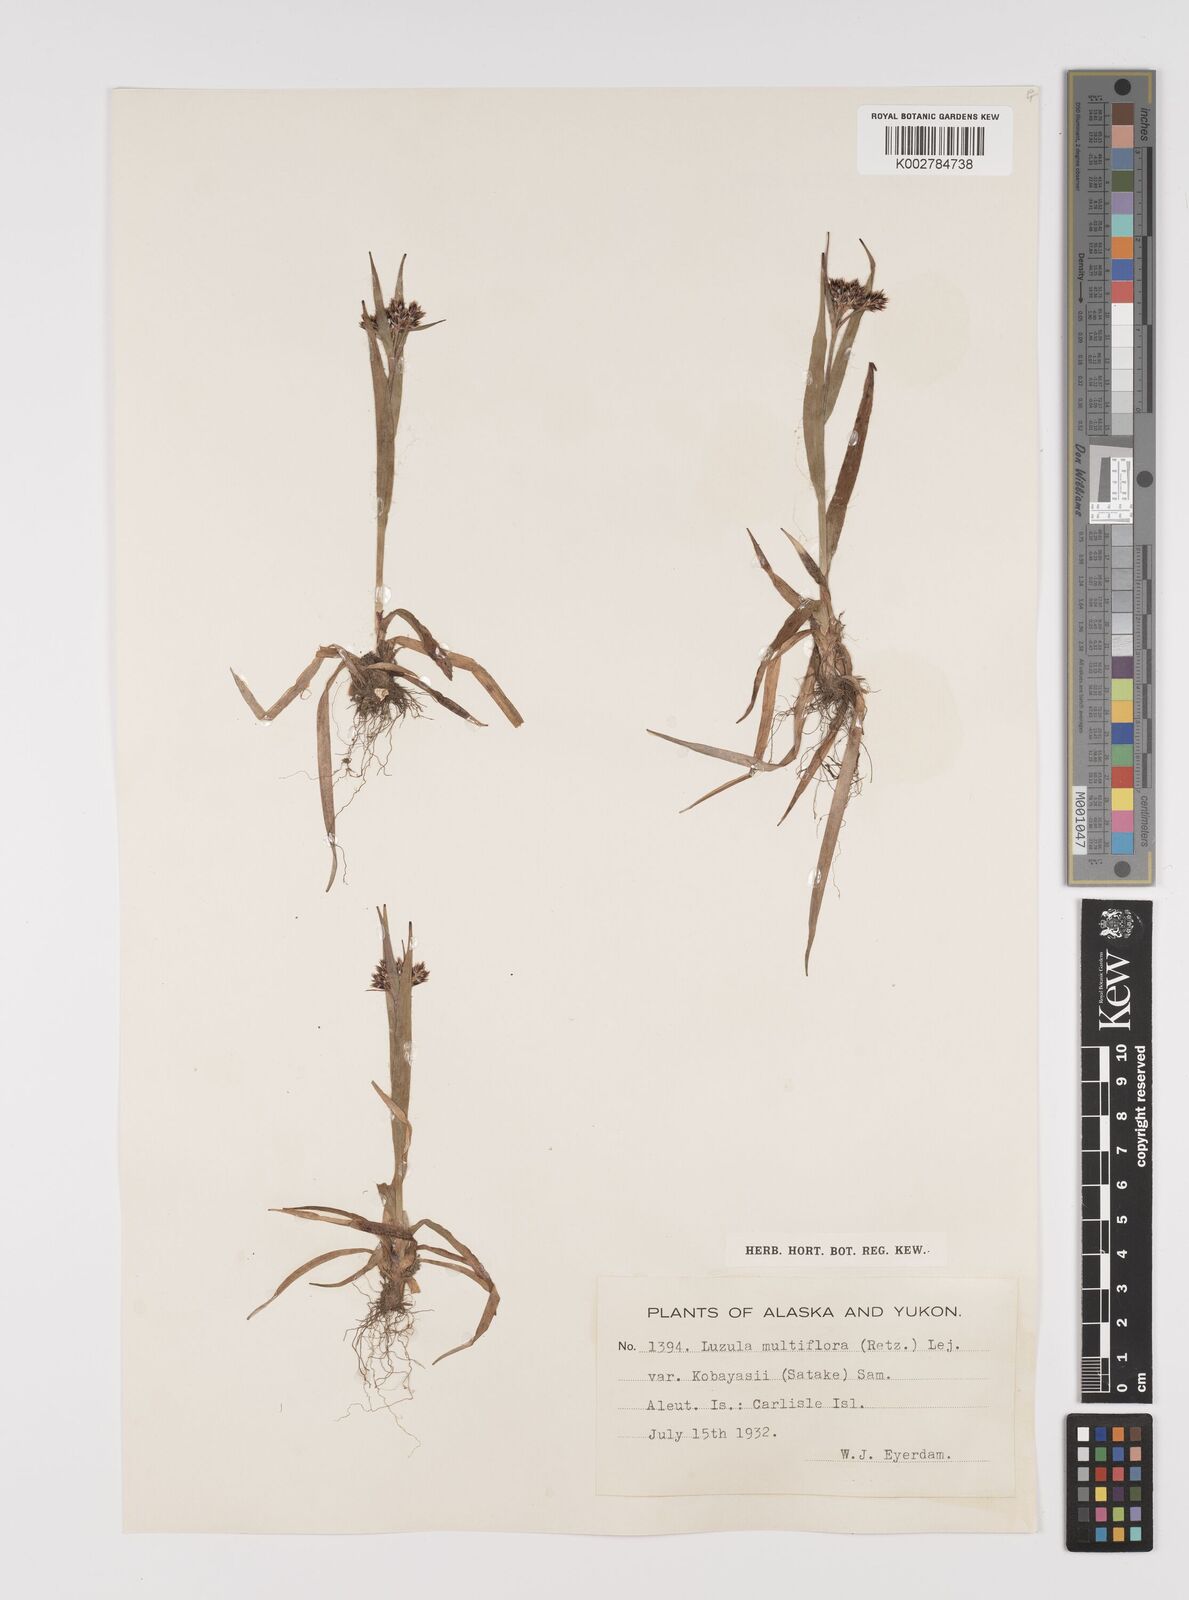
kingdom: Plantae
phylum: Tracheophyta
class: Liliopsida
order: Poales
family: Juncaceae
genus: Luzula
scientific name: Luzula campestris
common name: Field wood-rush
